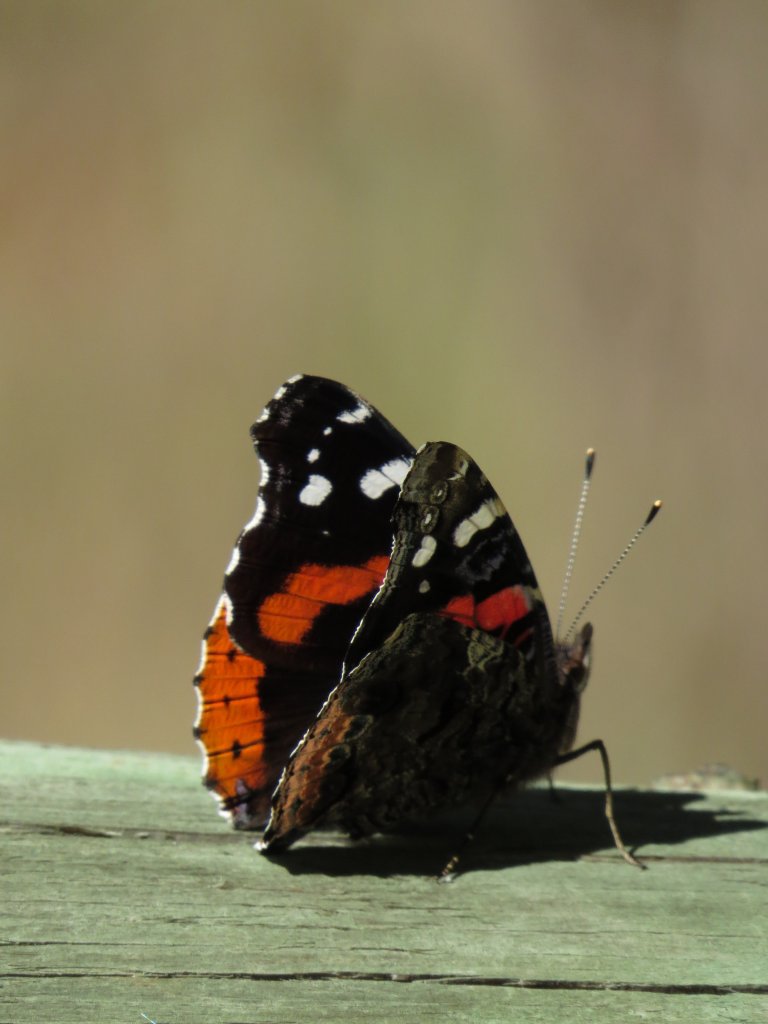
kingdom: Animalia
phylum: Arthropoda
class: Insecta
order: Lepidoptera
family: Nymphalidae
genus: Vanessa
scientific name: Vanessa atalanta
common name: Red Admiral
